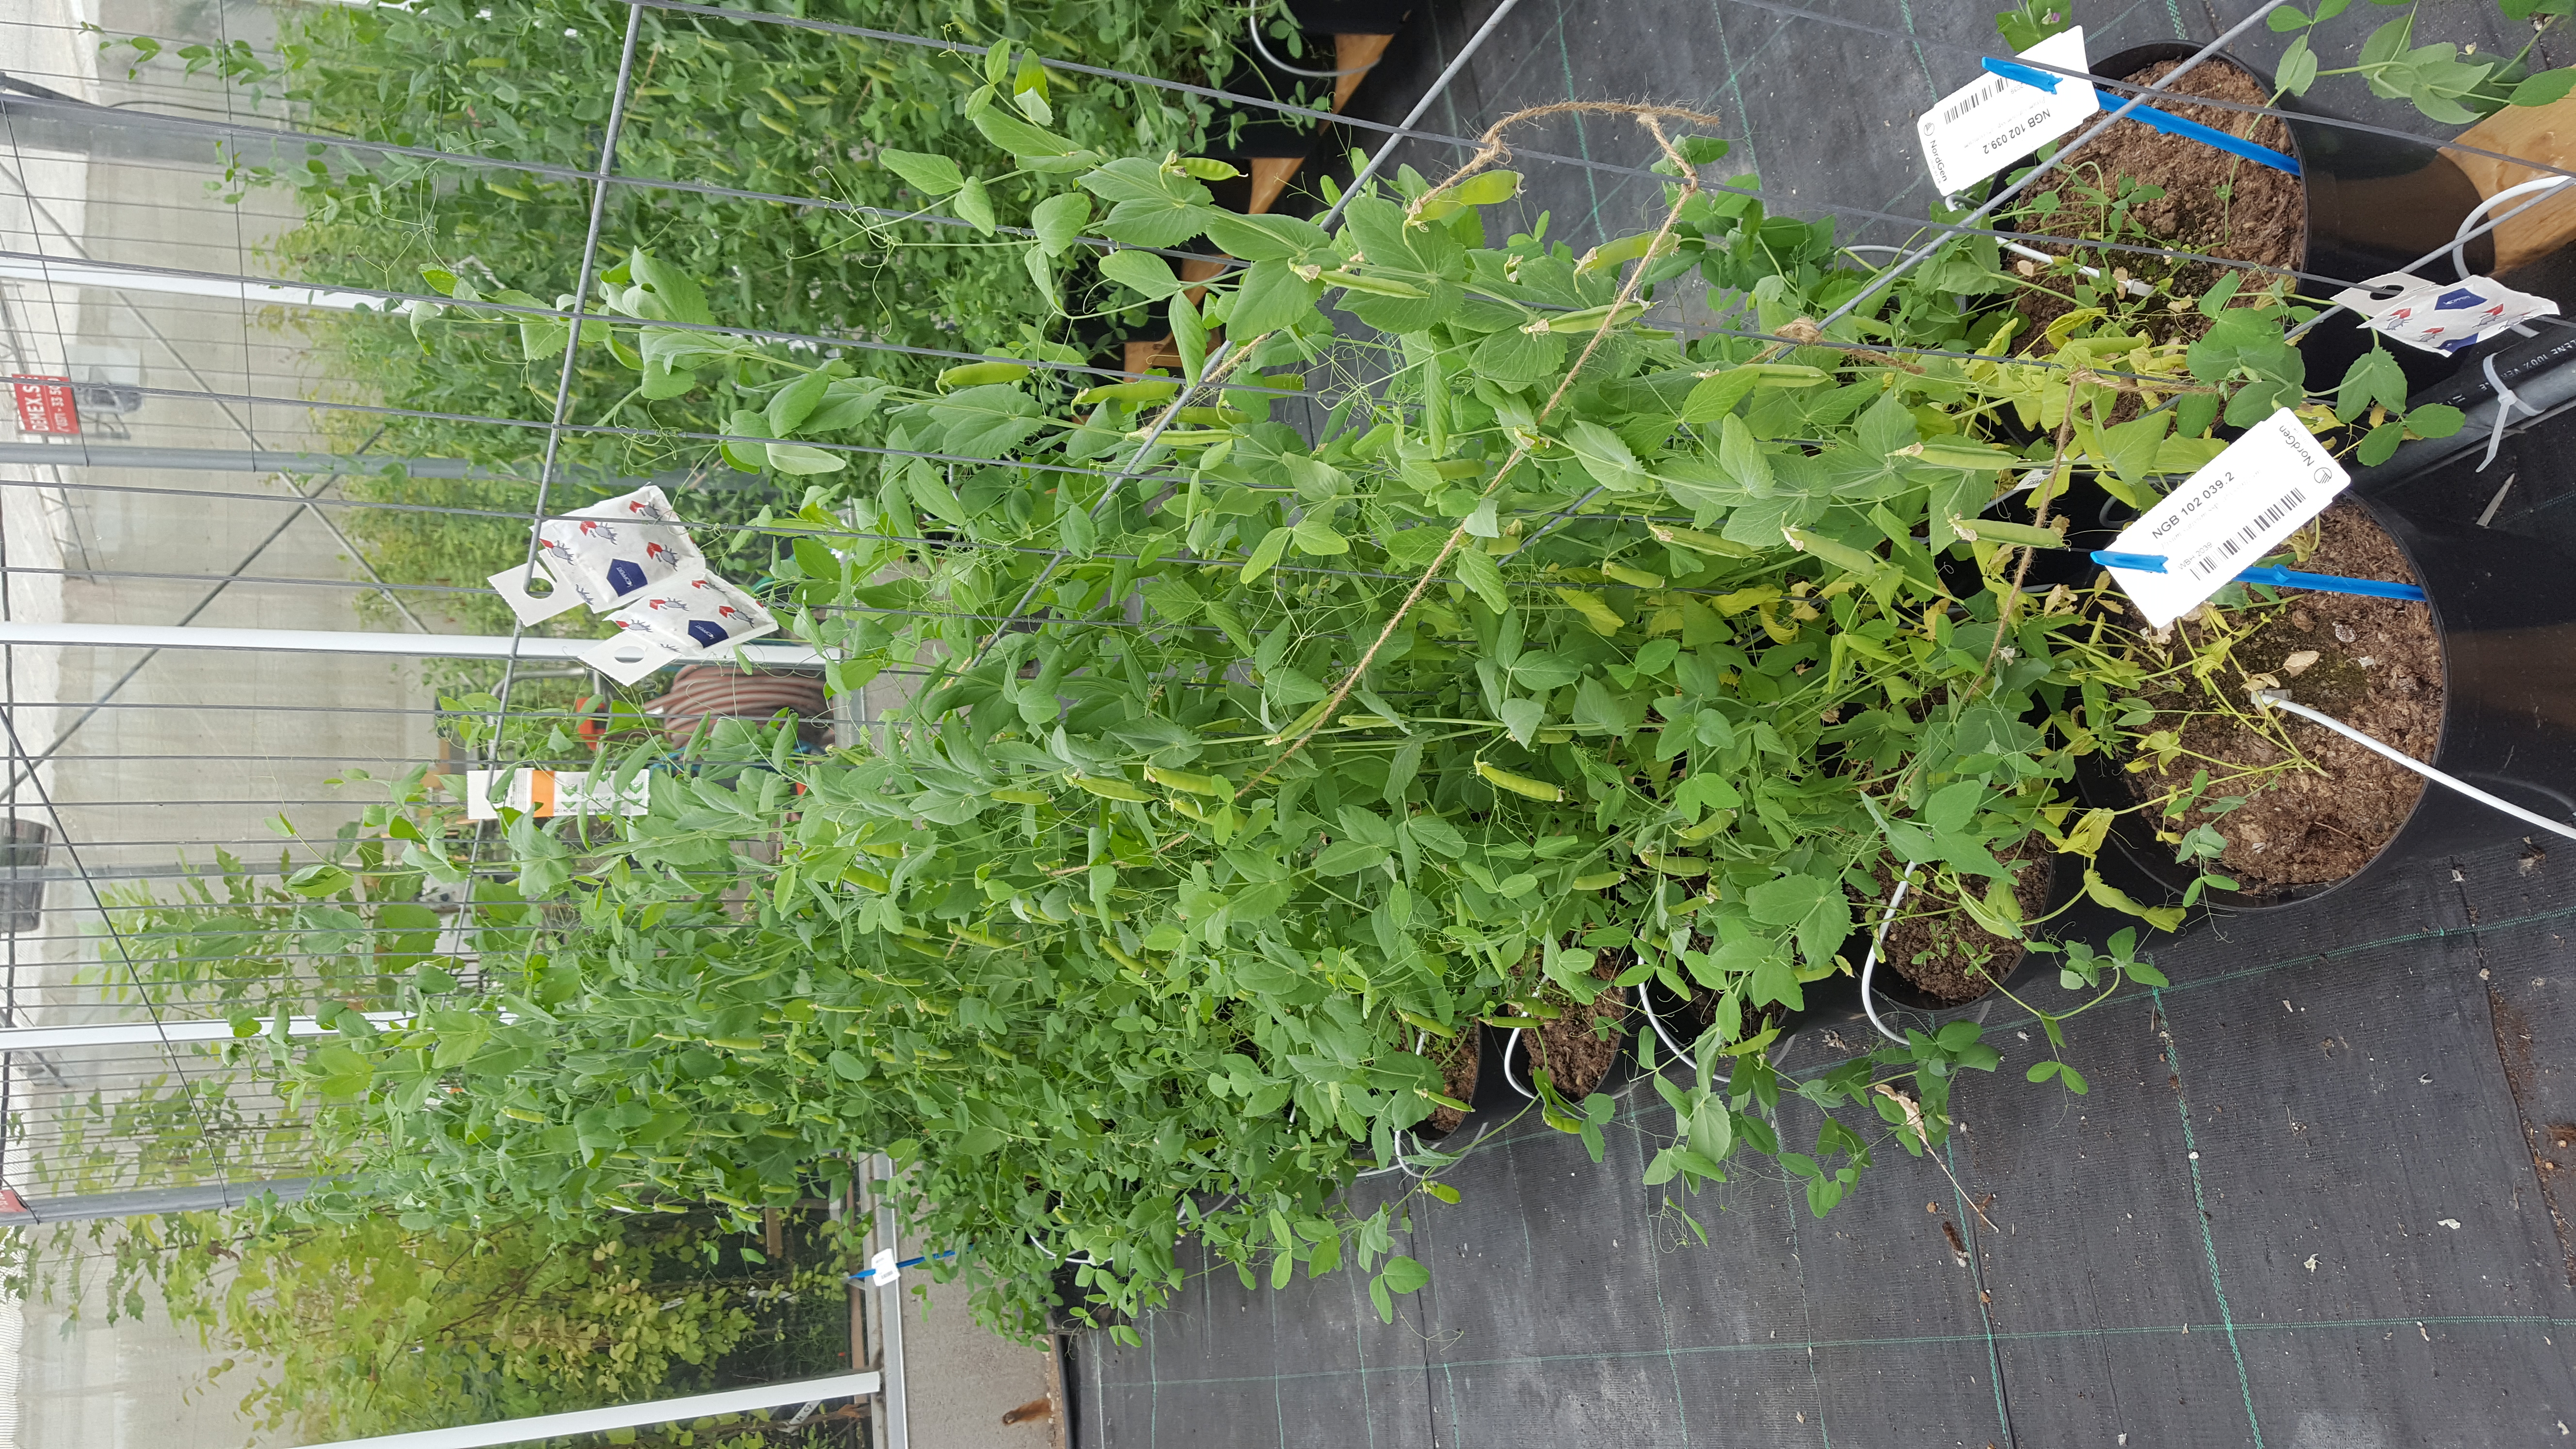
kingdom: Plantae
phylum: Tracheophyta
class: Magnoliopsida
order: Fabales
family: Fabaceae
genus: Lathyrus
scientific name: Lathyrus oleraceus
